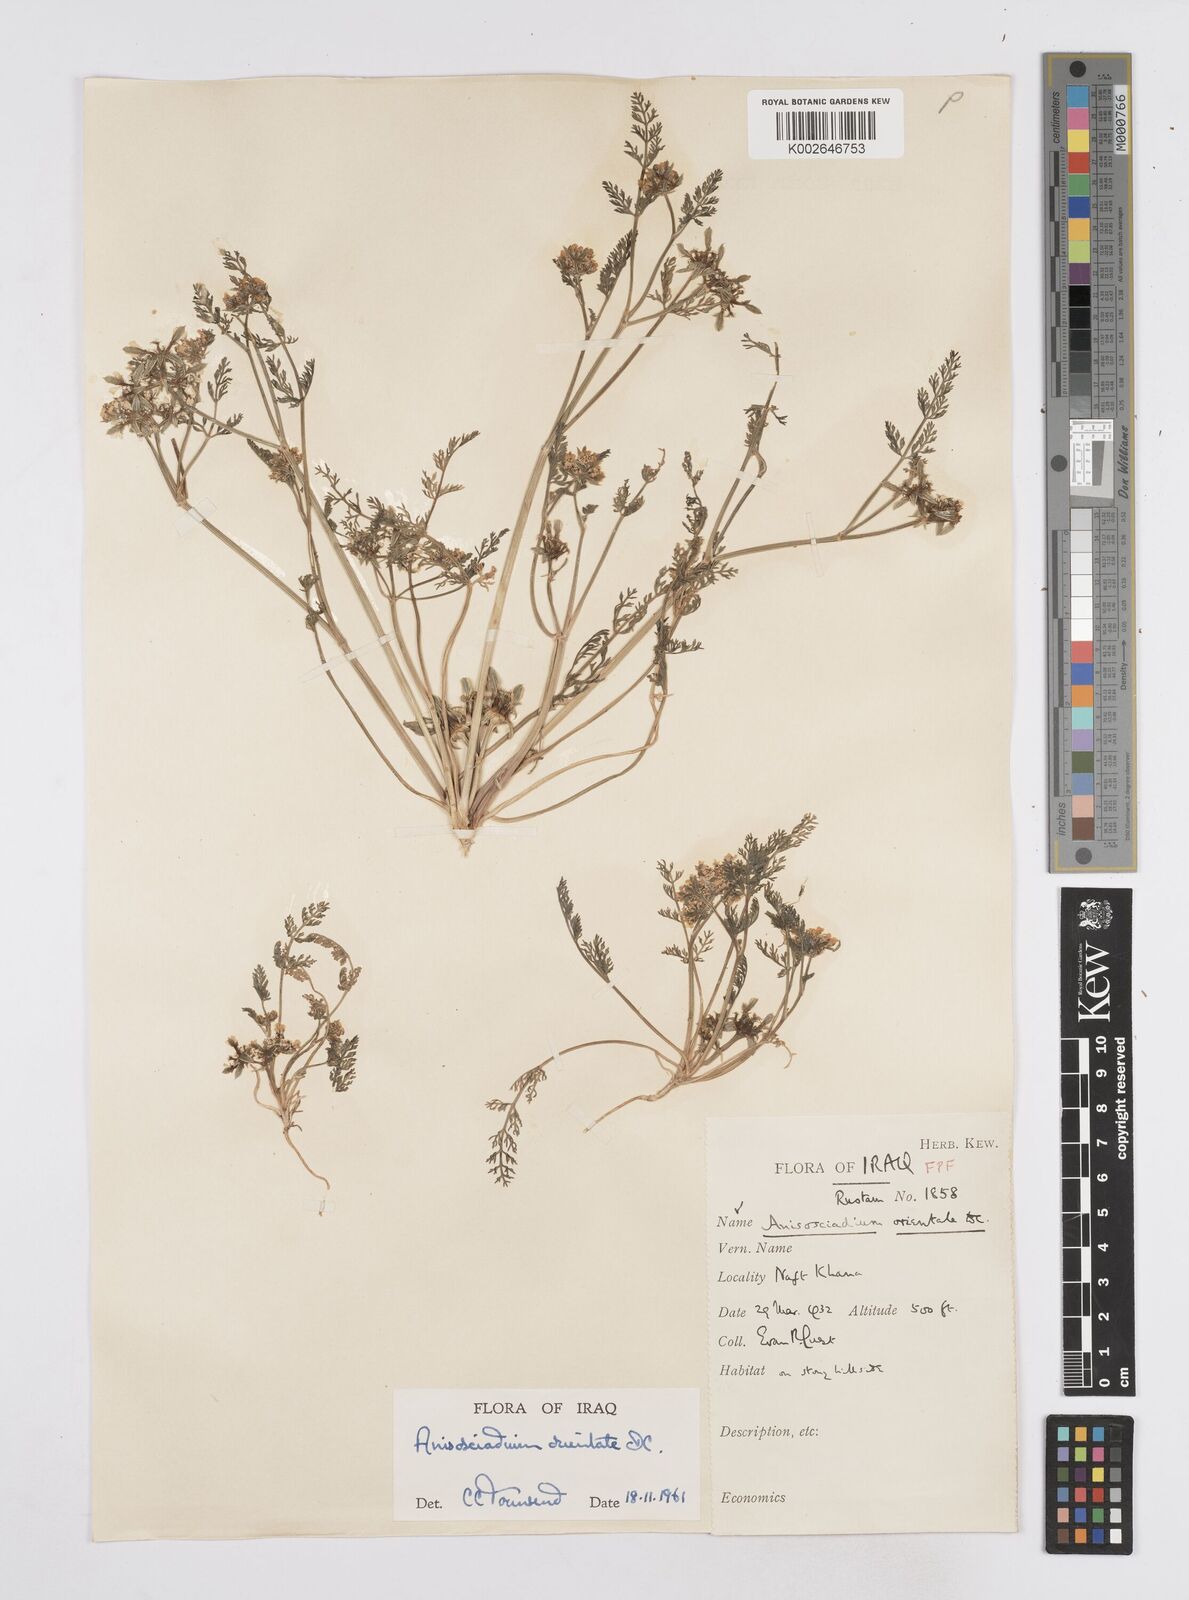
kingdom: Plantae
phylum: Tracheophyta
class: Magnoliopsida
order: Apiales
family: Apiaceae
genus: Anisosciadium
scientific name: Anisosciadium orientale
